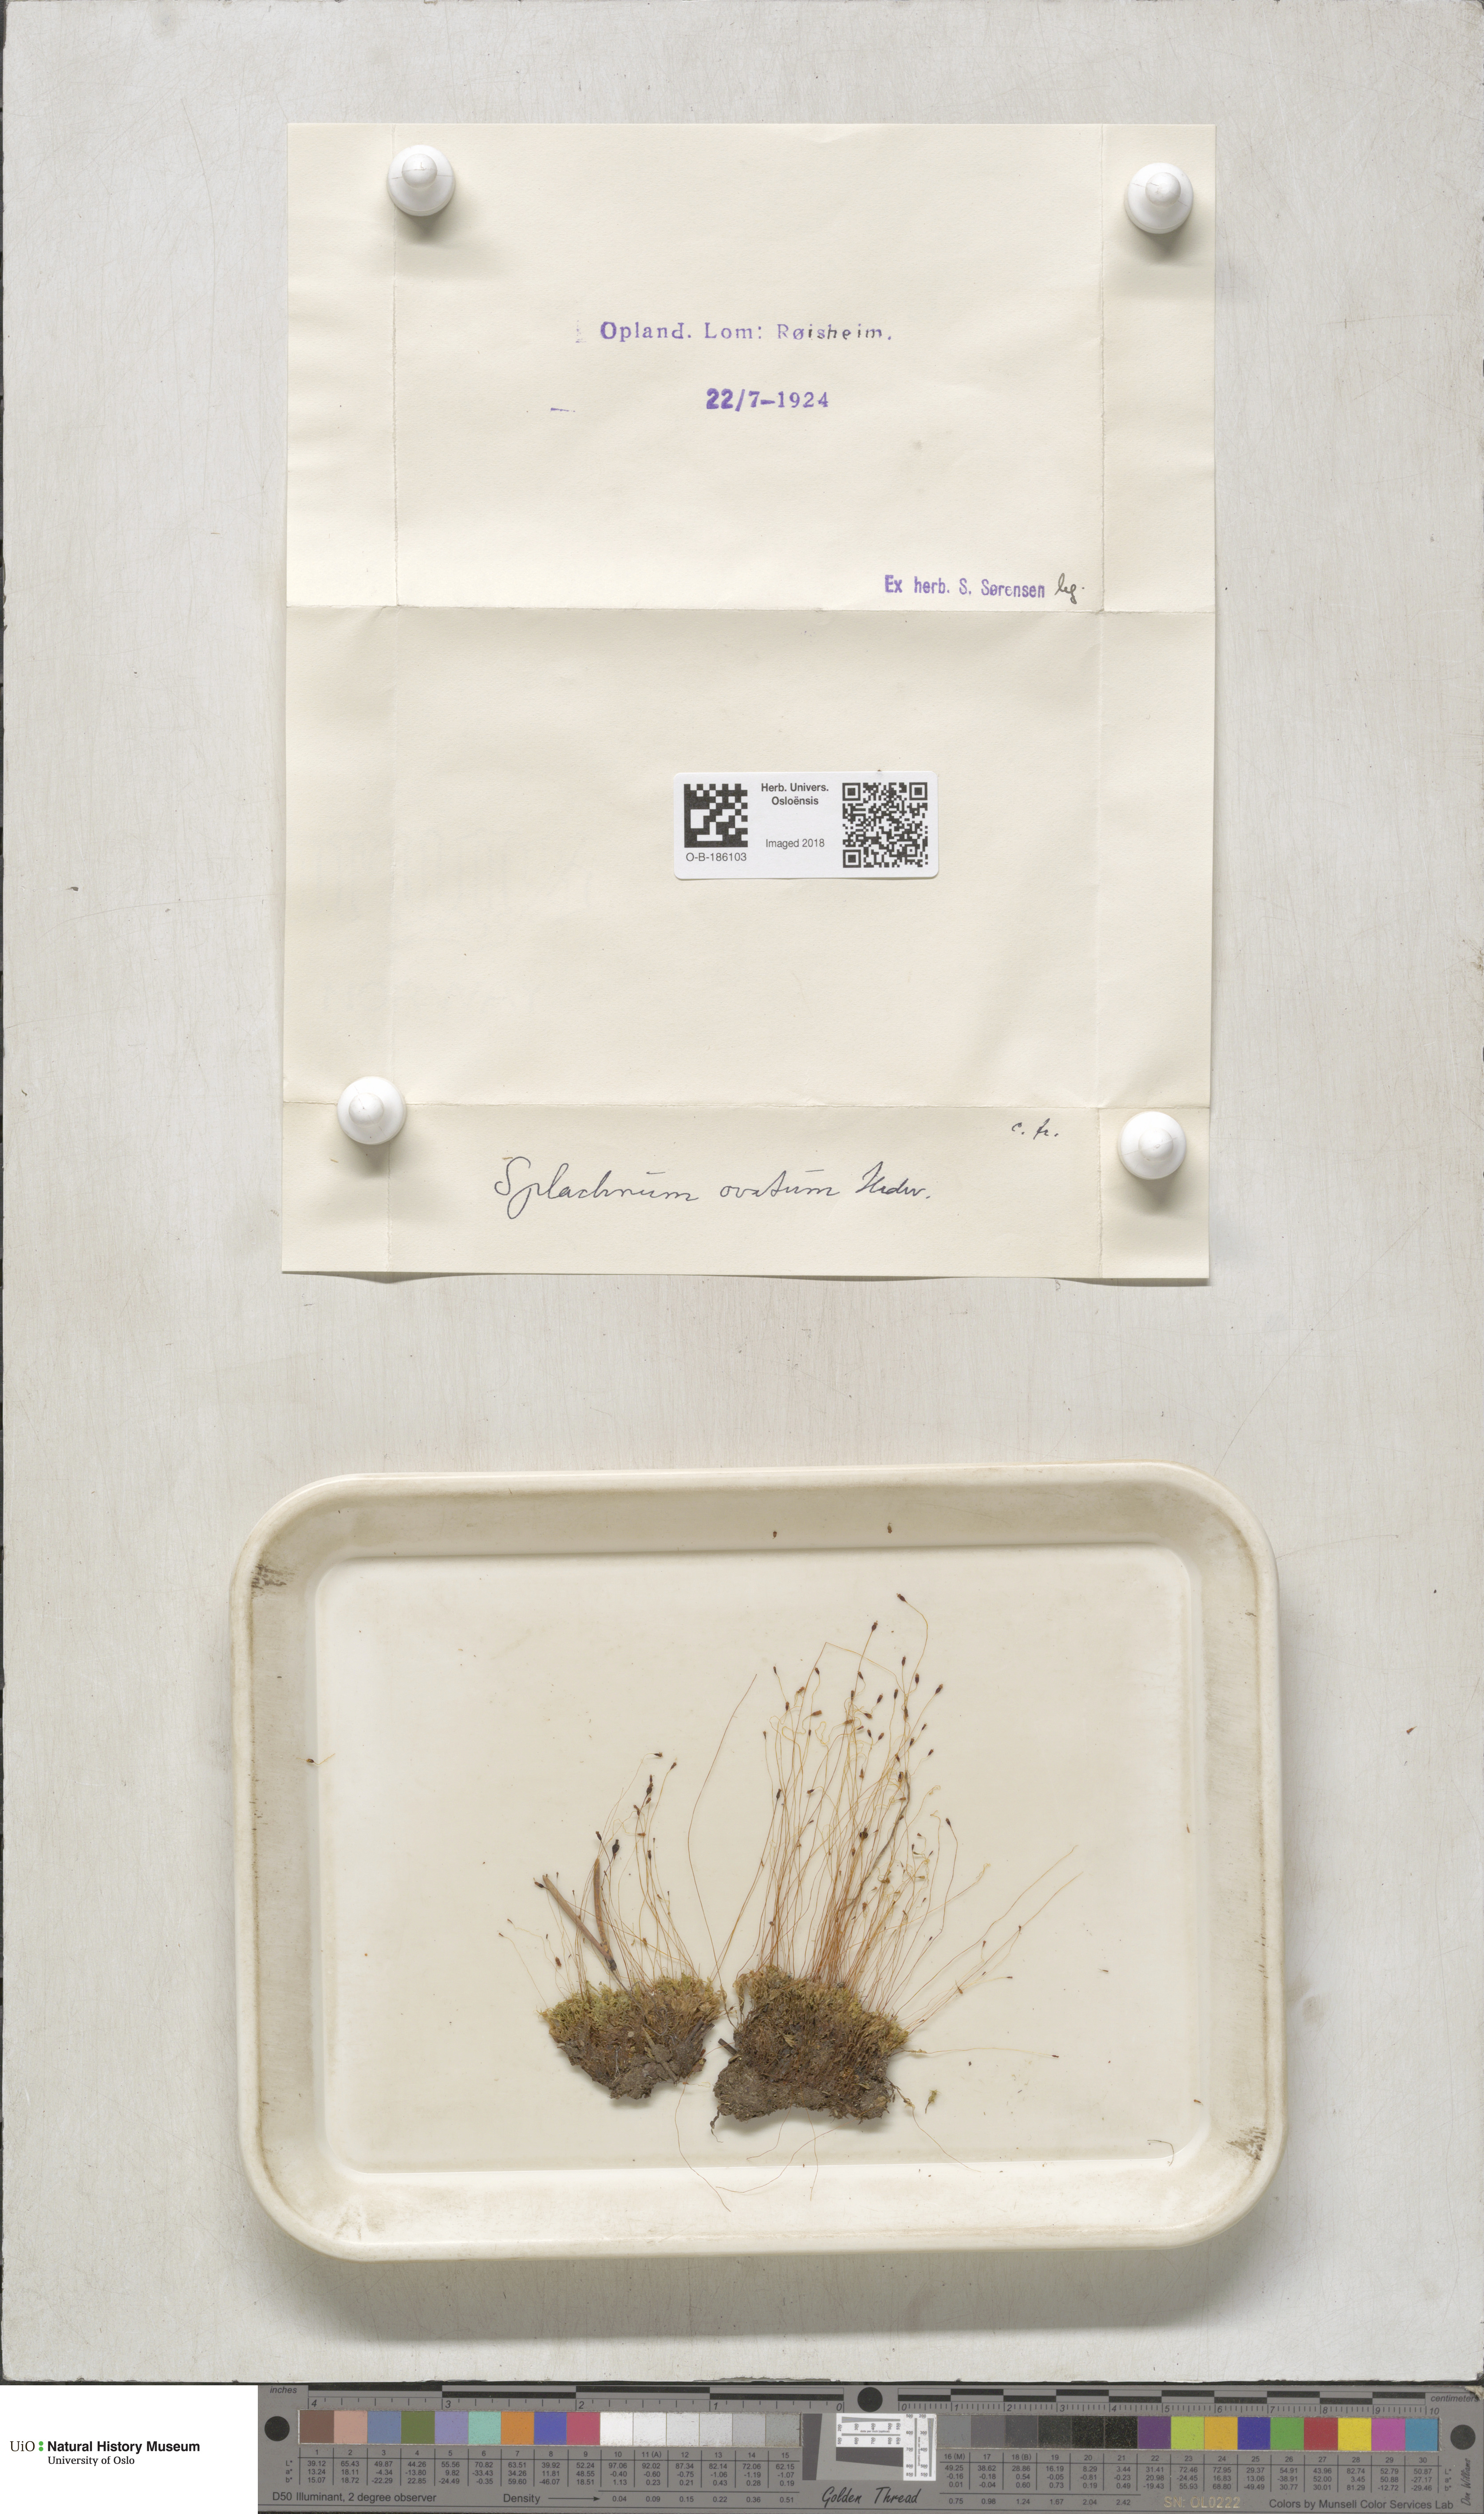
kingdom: Plantae
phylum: Bryophyta
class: Bryopsida
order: Splachnales
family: Splachnaceae
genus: Splachnum
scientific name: Splachnum sphaericum
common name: Round-fruited dung moss
